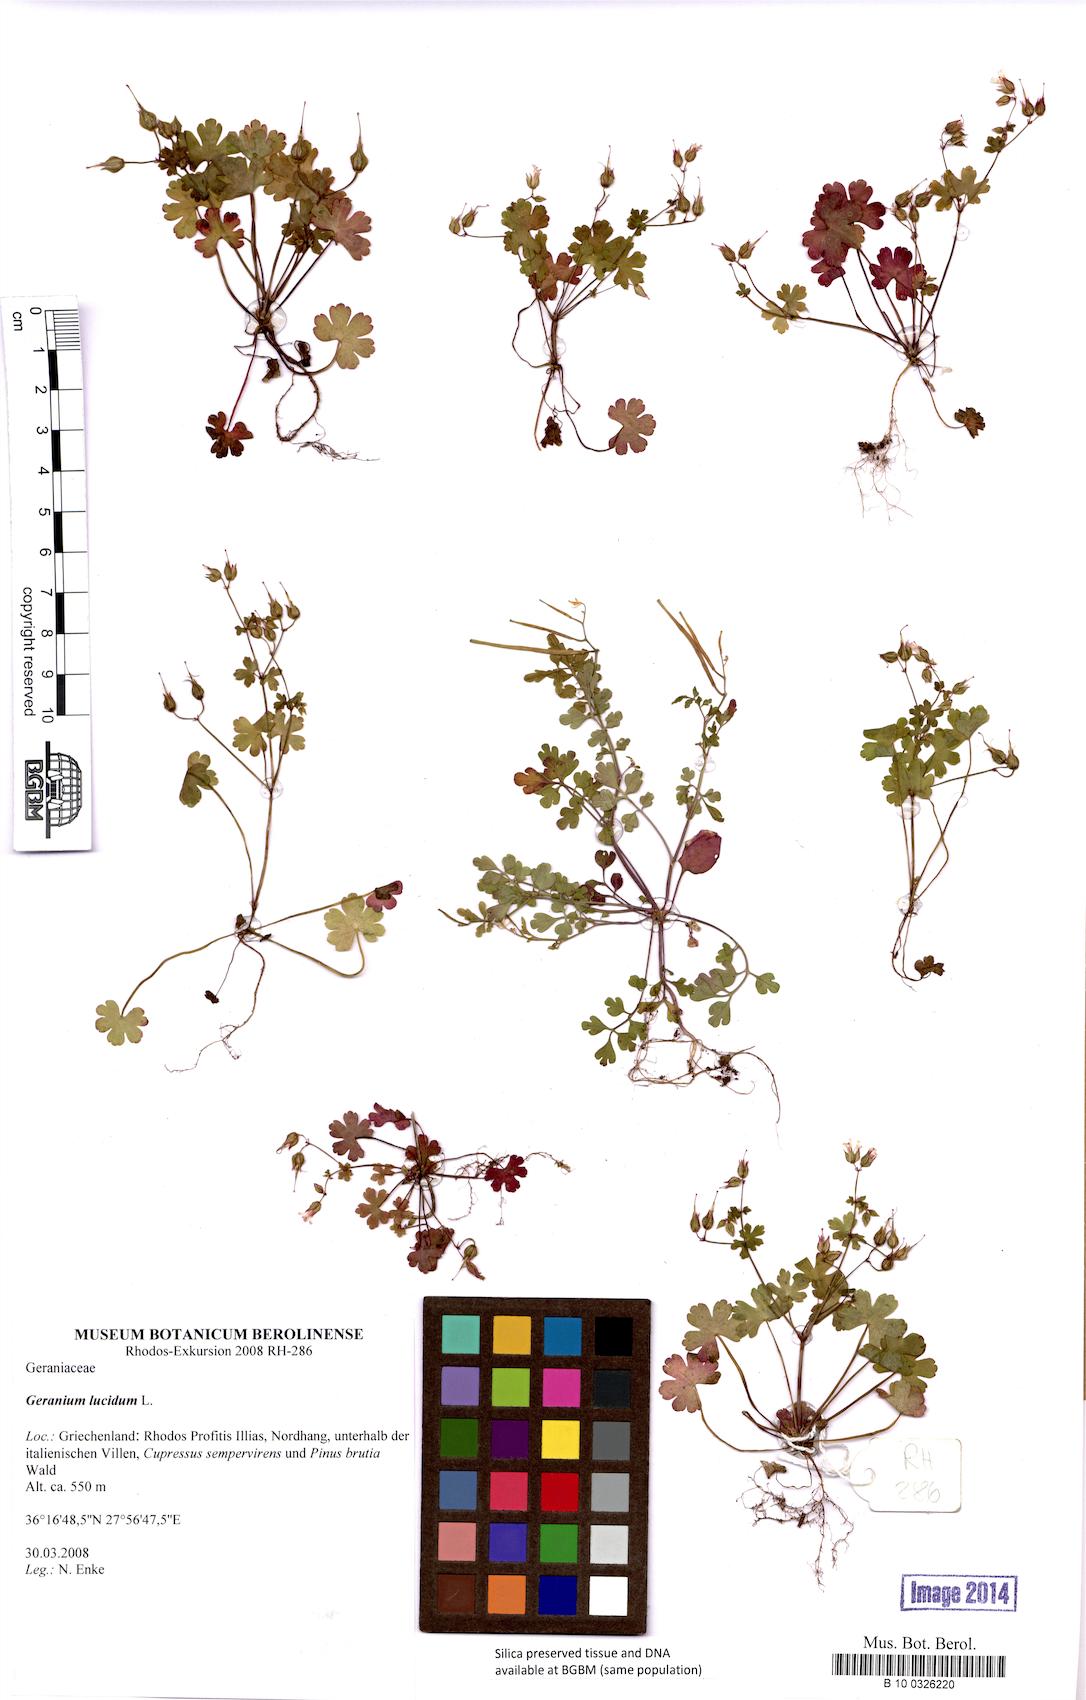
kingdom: Plantae
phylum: Tracheophyta
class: Magnoliopsida
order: Geraniales
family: Geraniaceae
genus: Geranium
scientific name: Geranium lucidum
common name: Shining crane's-bill
